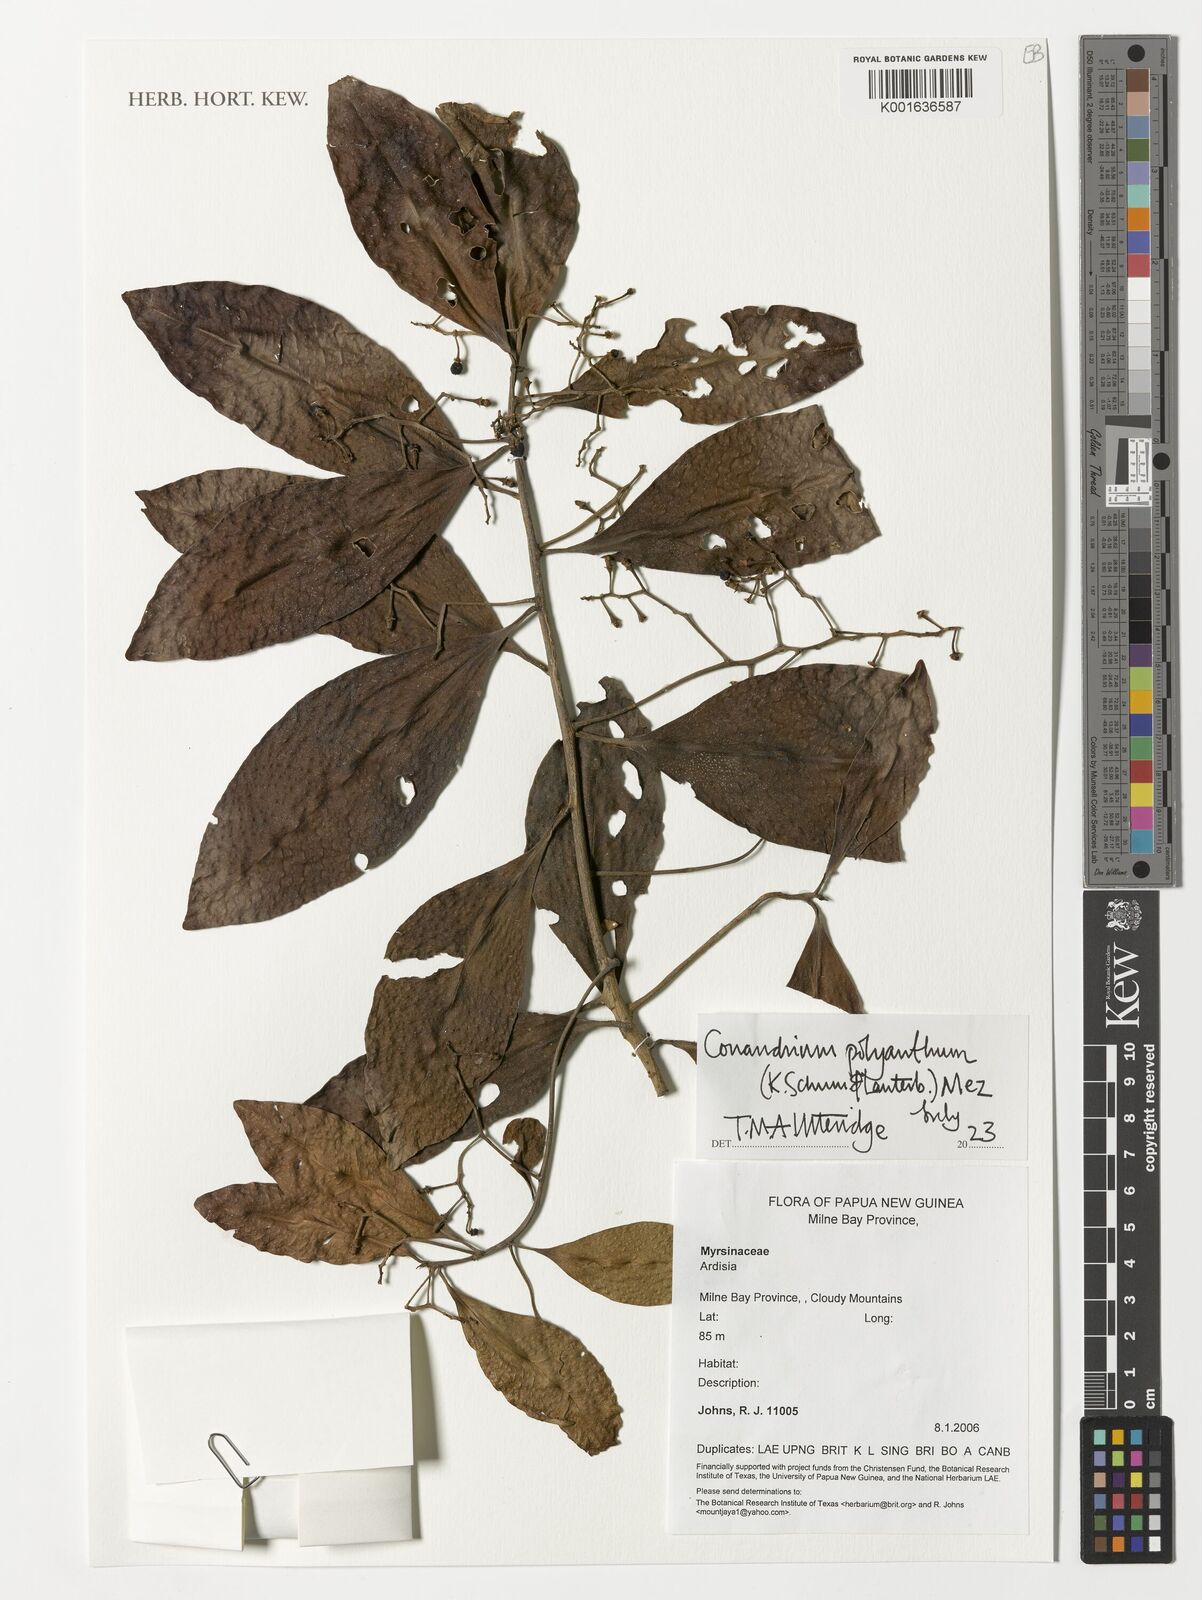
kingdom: Plantae
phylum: Tracheophyta
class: Magnoliopsida
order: Ericales
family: Primulaceae
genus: Conandrium
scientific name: Conandrium polyanthum
